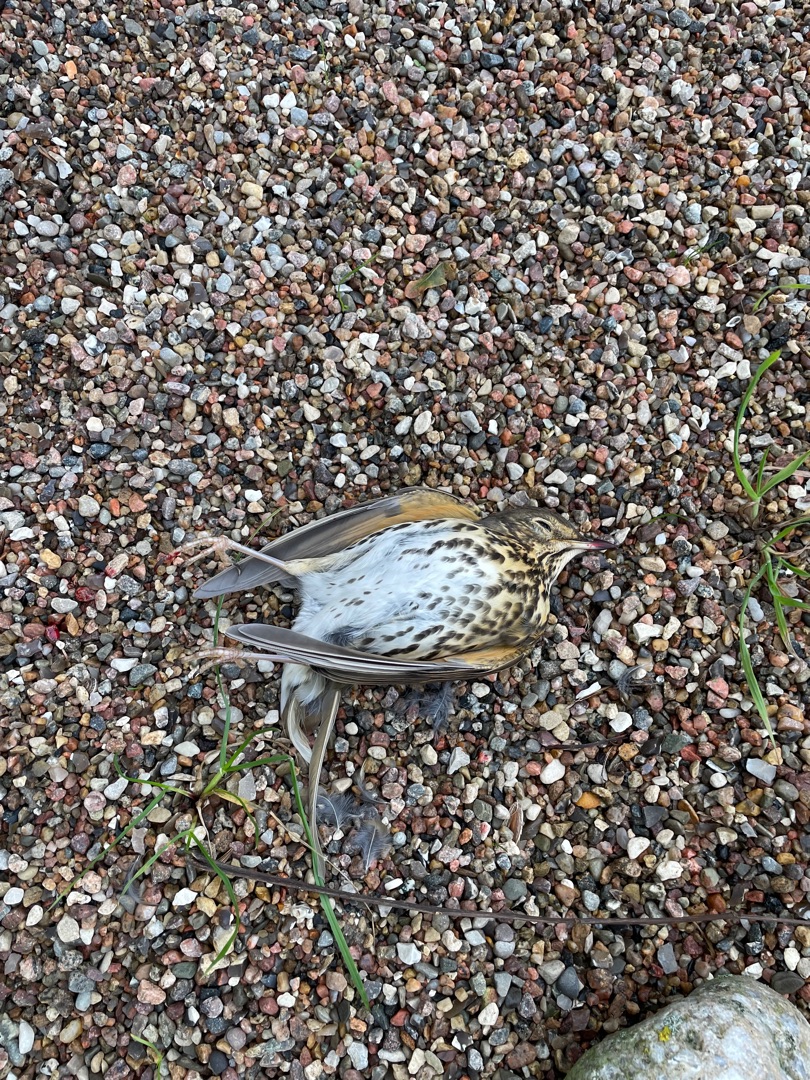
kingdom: Animalia
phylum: Chordata
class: Aves
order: Passeriformes
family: Turdidae
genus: Turdus
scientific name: Turdus philomelos
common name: Sangdrossel
